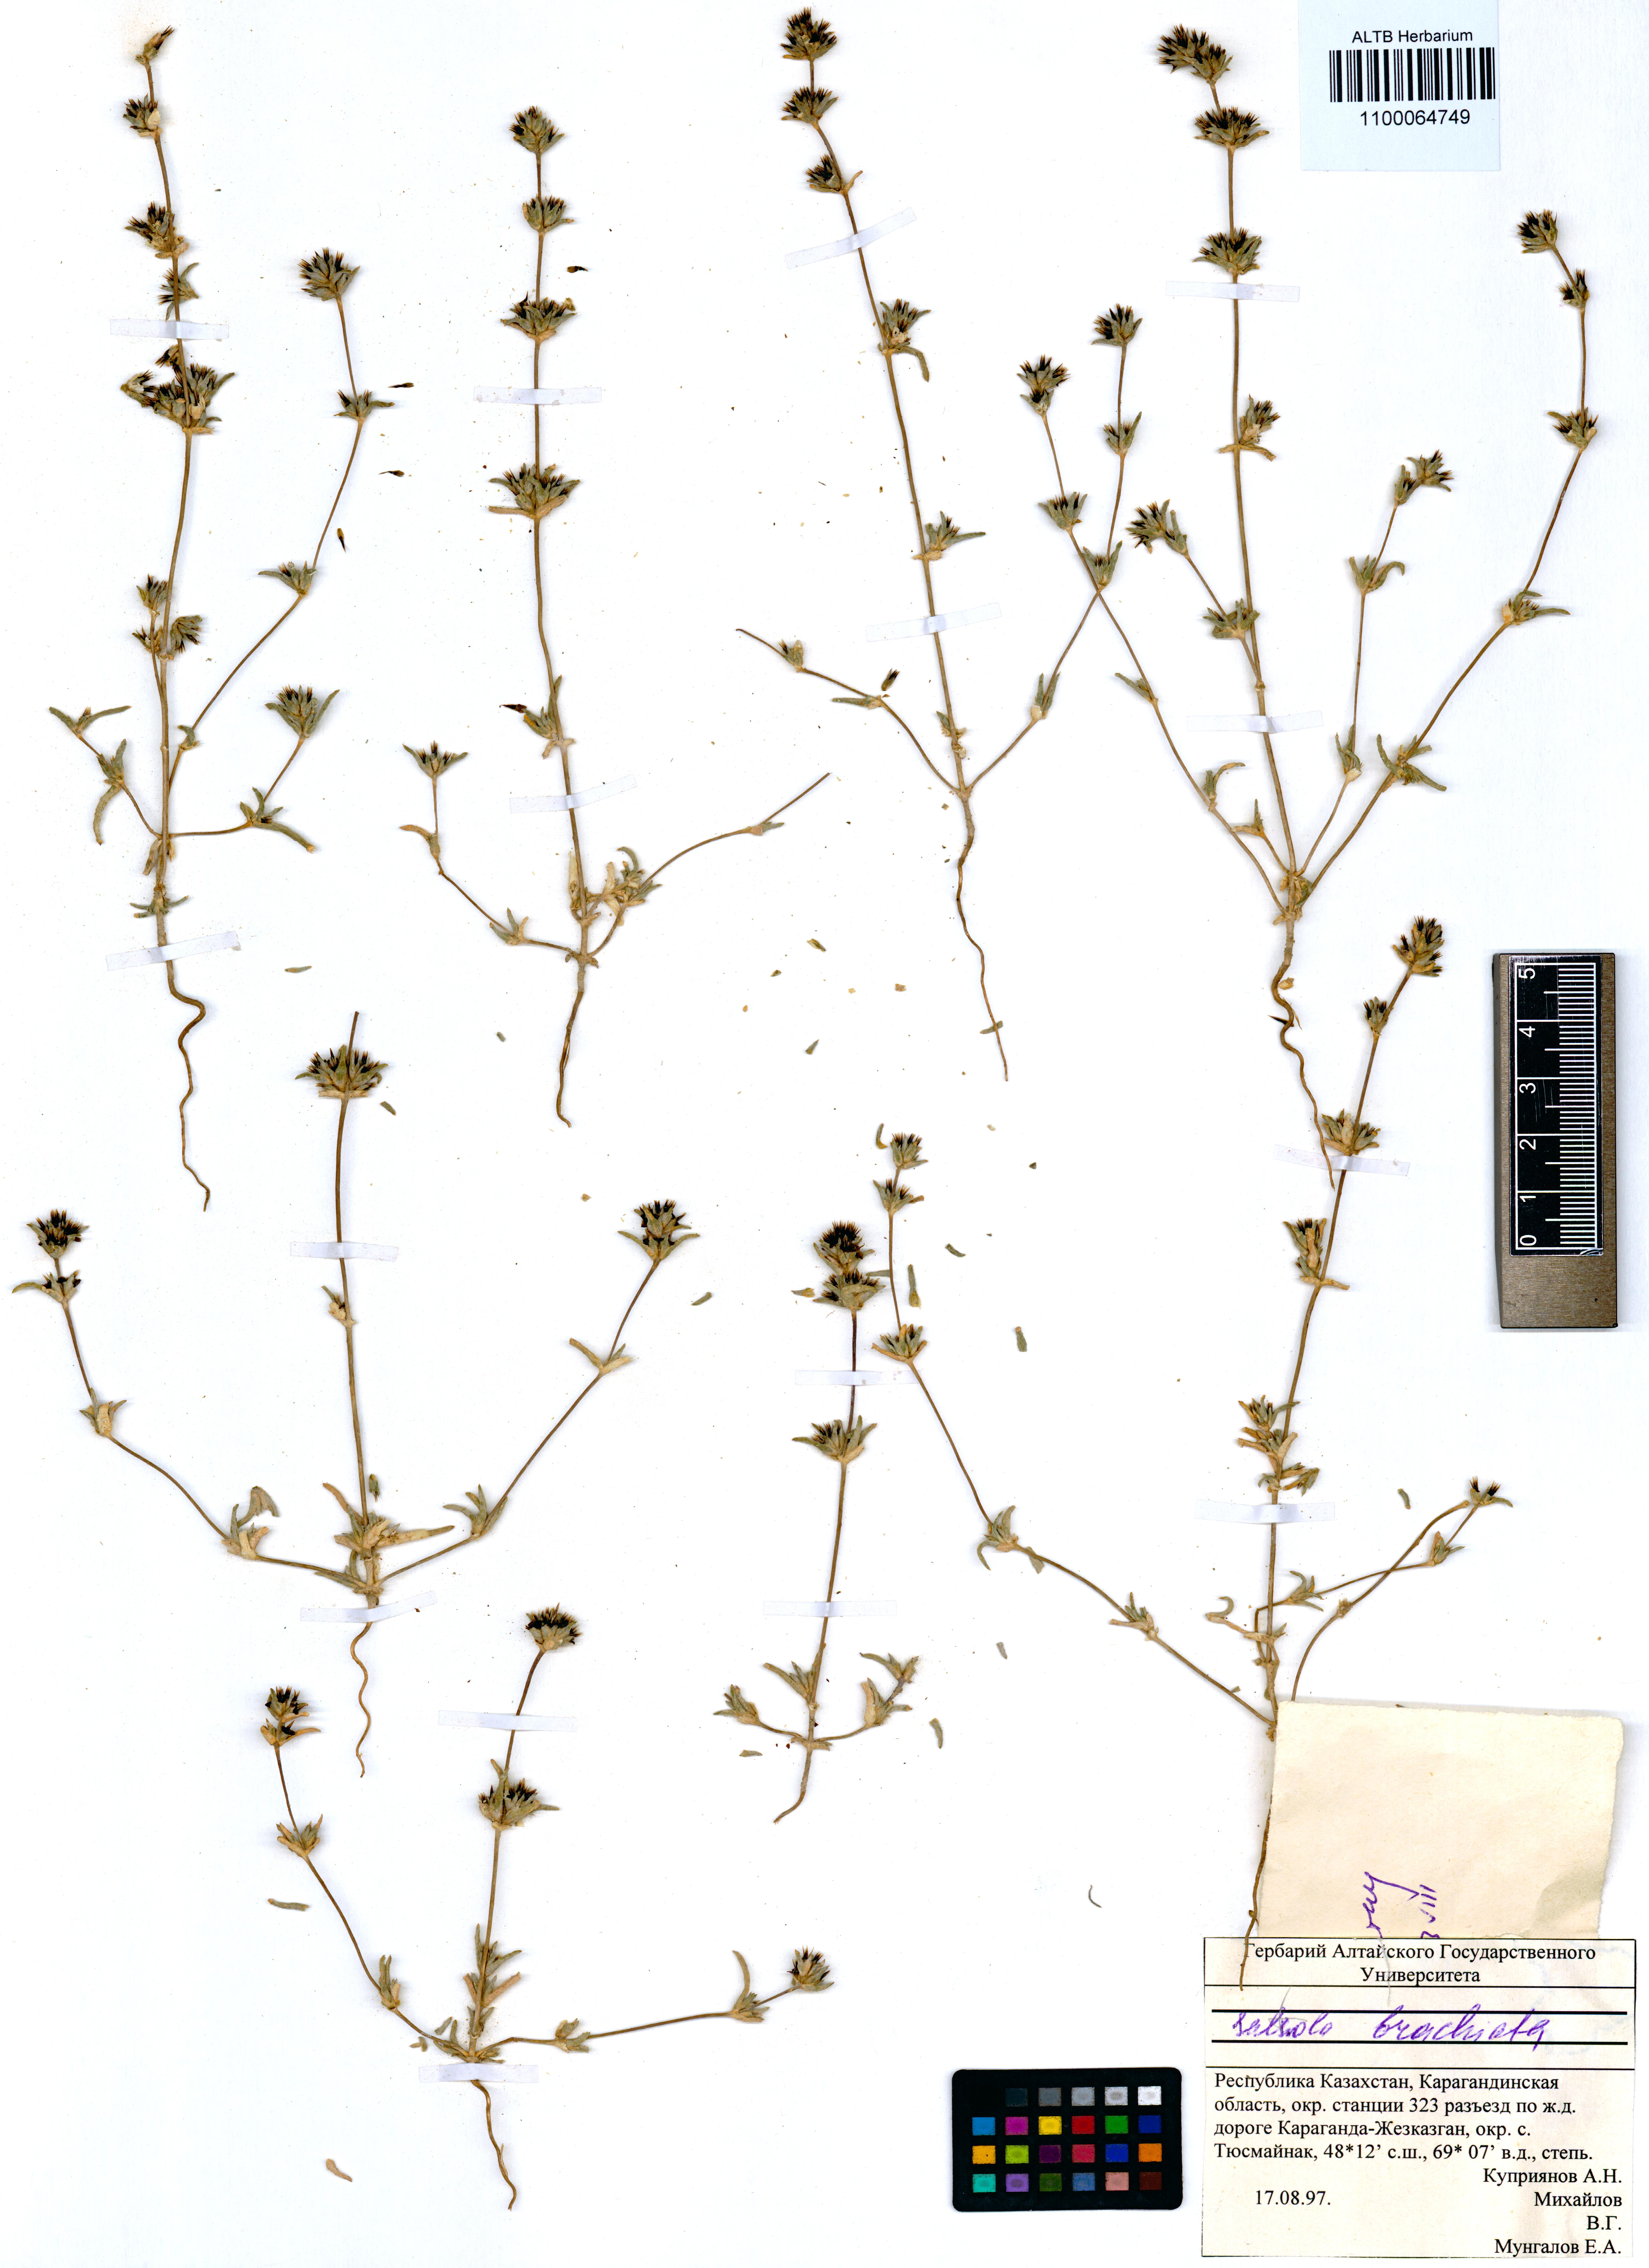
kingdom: Plantae
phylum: Tracheophyta
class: Magnoliopsida
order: Caryophyllales
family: Amaranthaceae
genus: Pyankovia
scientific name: Pyankovia brachiata
